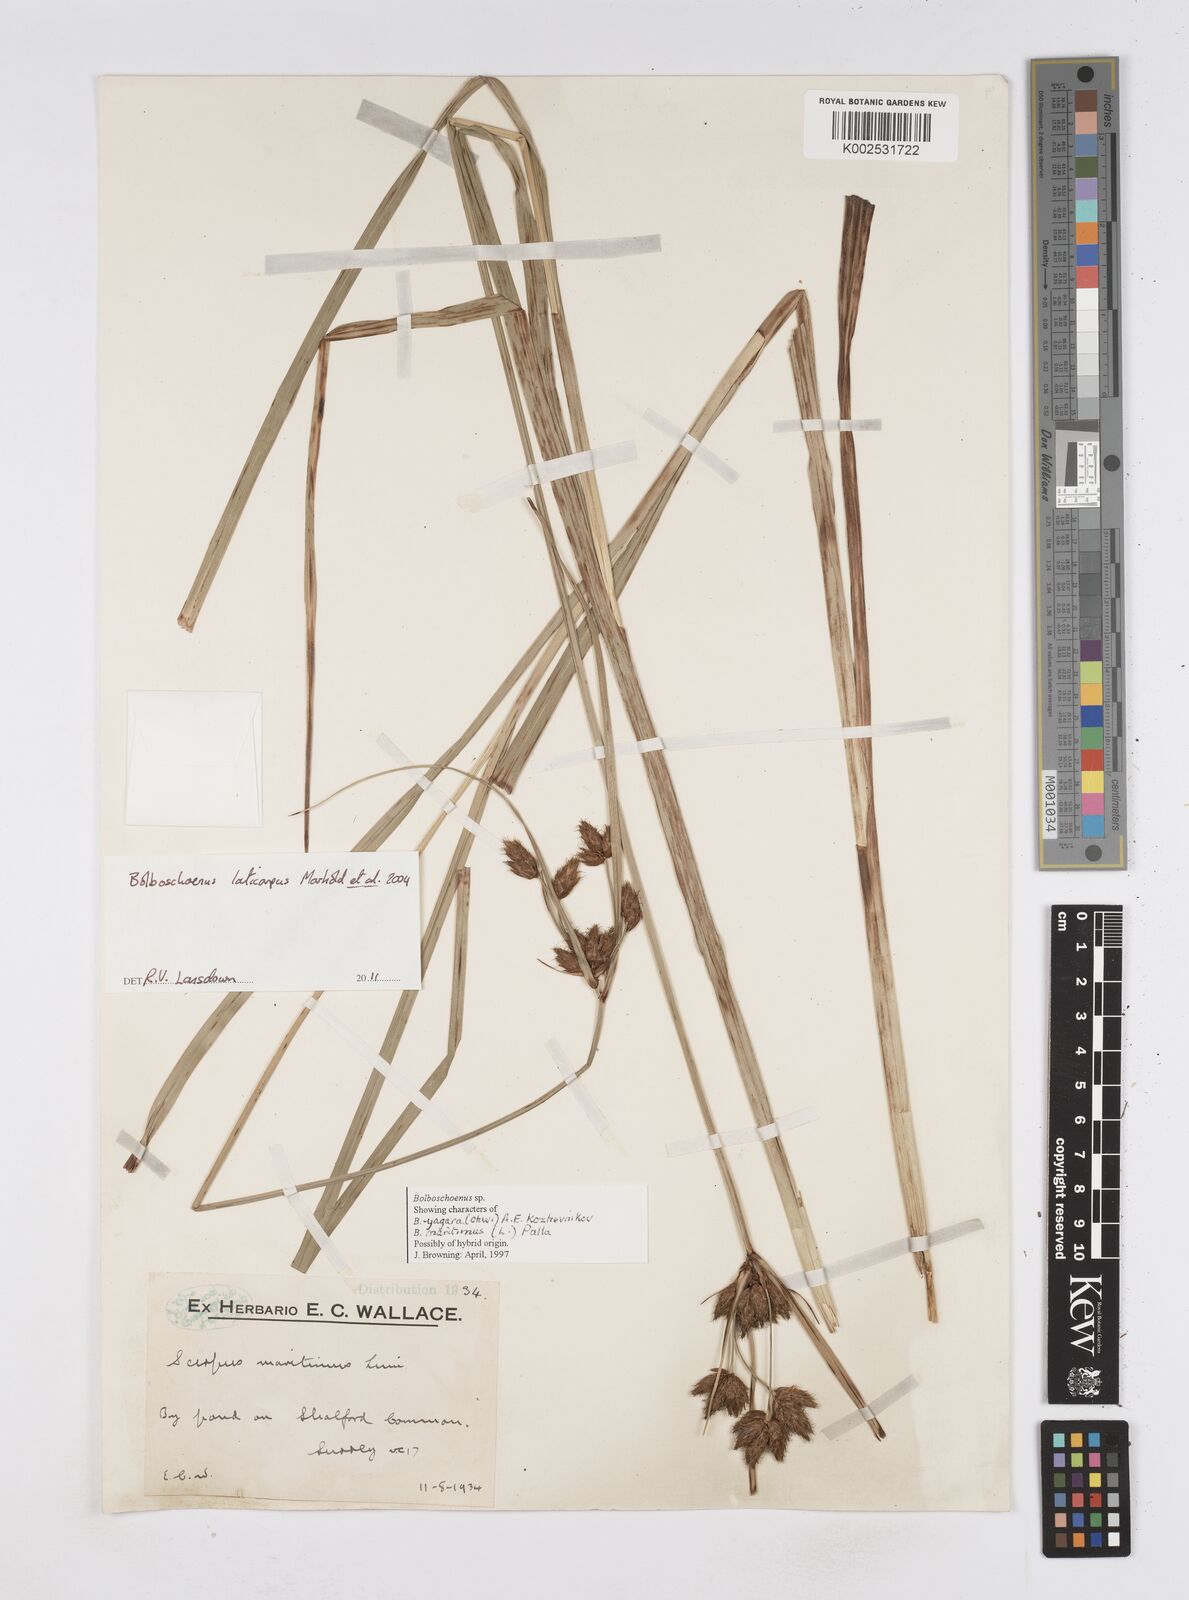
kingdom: Plantae
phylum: Tracheophyta
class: Liliopsida
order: Poales
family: Cyperaceae
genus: Bolboschoenus
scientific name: Bolboschoenus laticarpus
